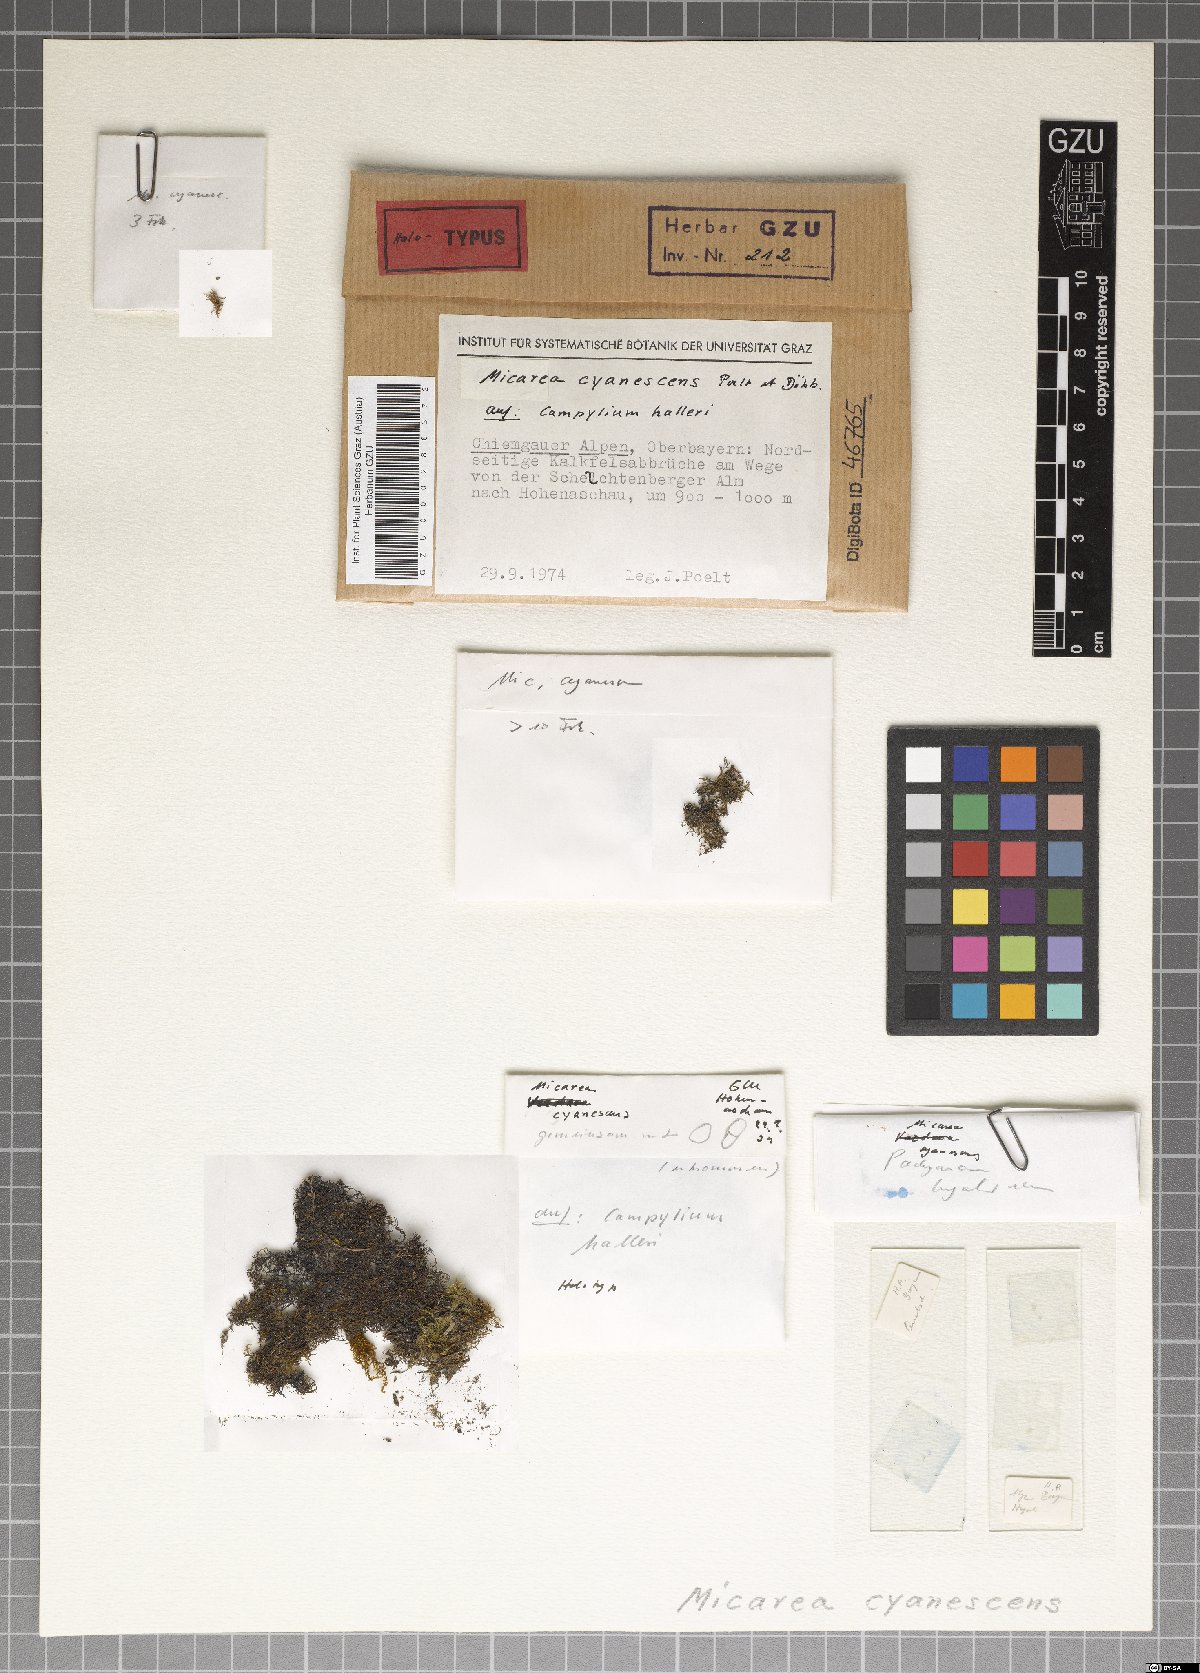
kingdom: Fungi
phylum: Ascomycota
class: Lecanoromycetes
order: Lecanorales
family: Pilocarpaceae
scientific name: Pilocarpaceae
